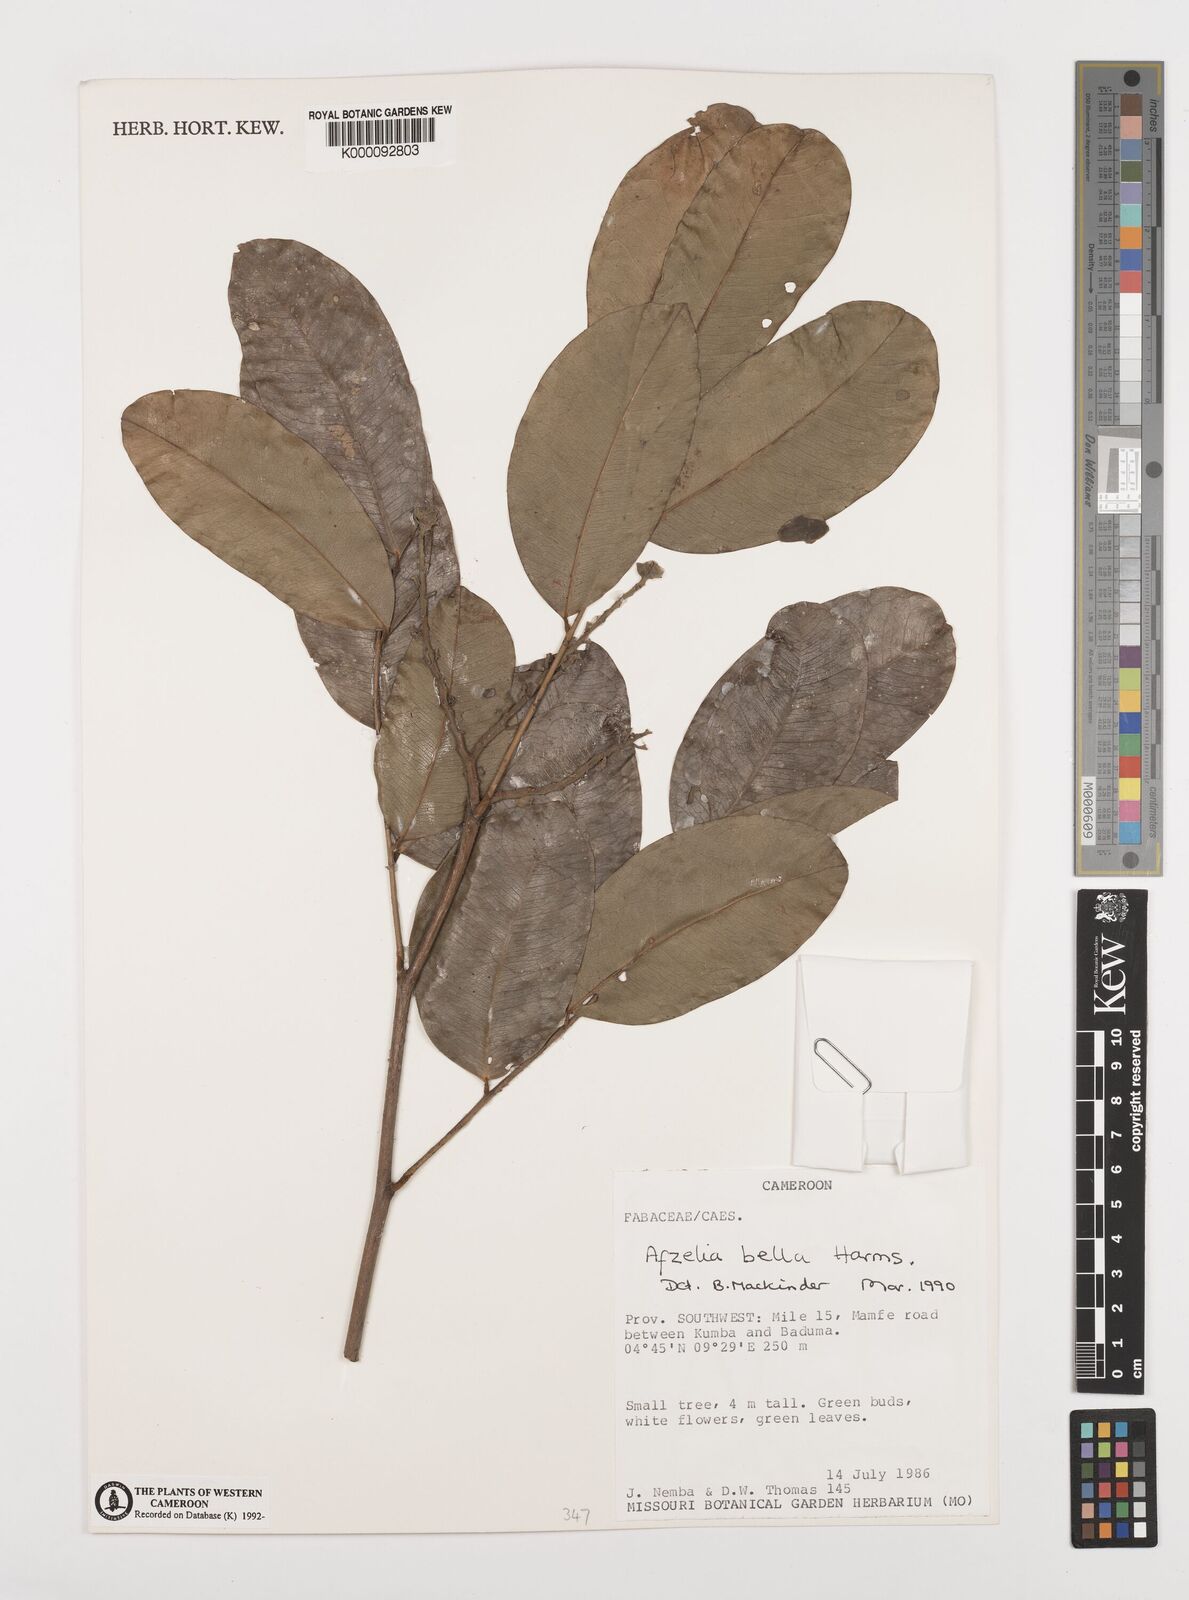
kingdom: Plantae
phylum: Tracheophyta
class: Magnoliopsida
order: Fabales
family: Fabaceae
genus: Afzelia
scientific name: Afzelia bella
